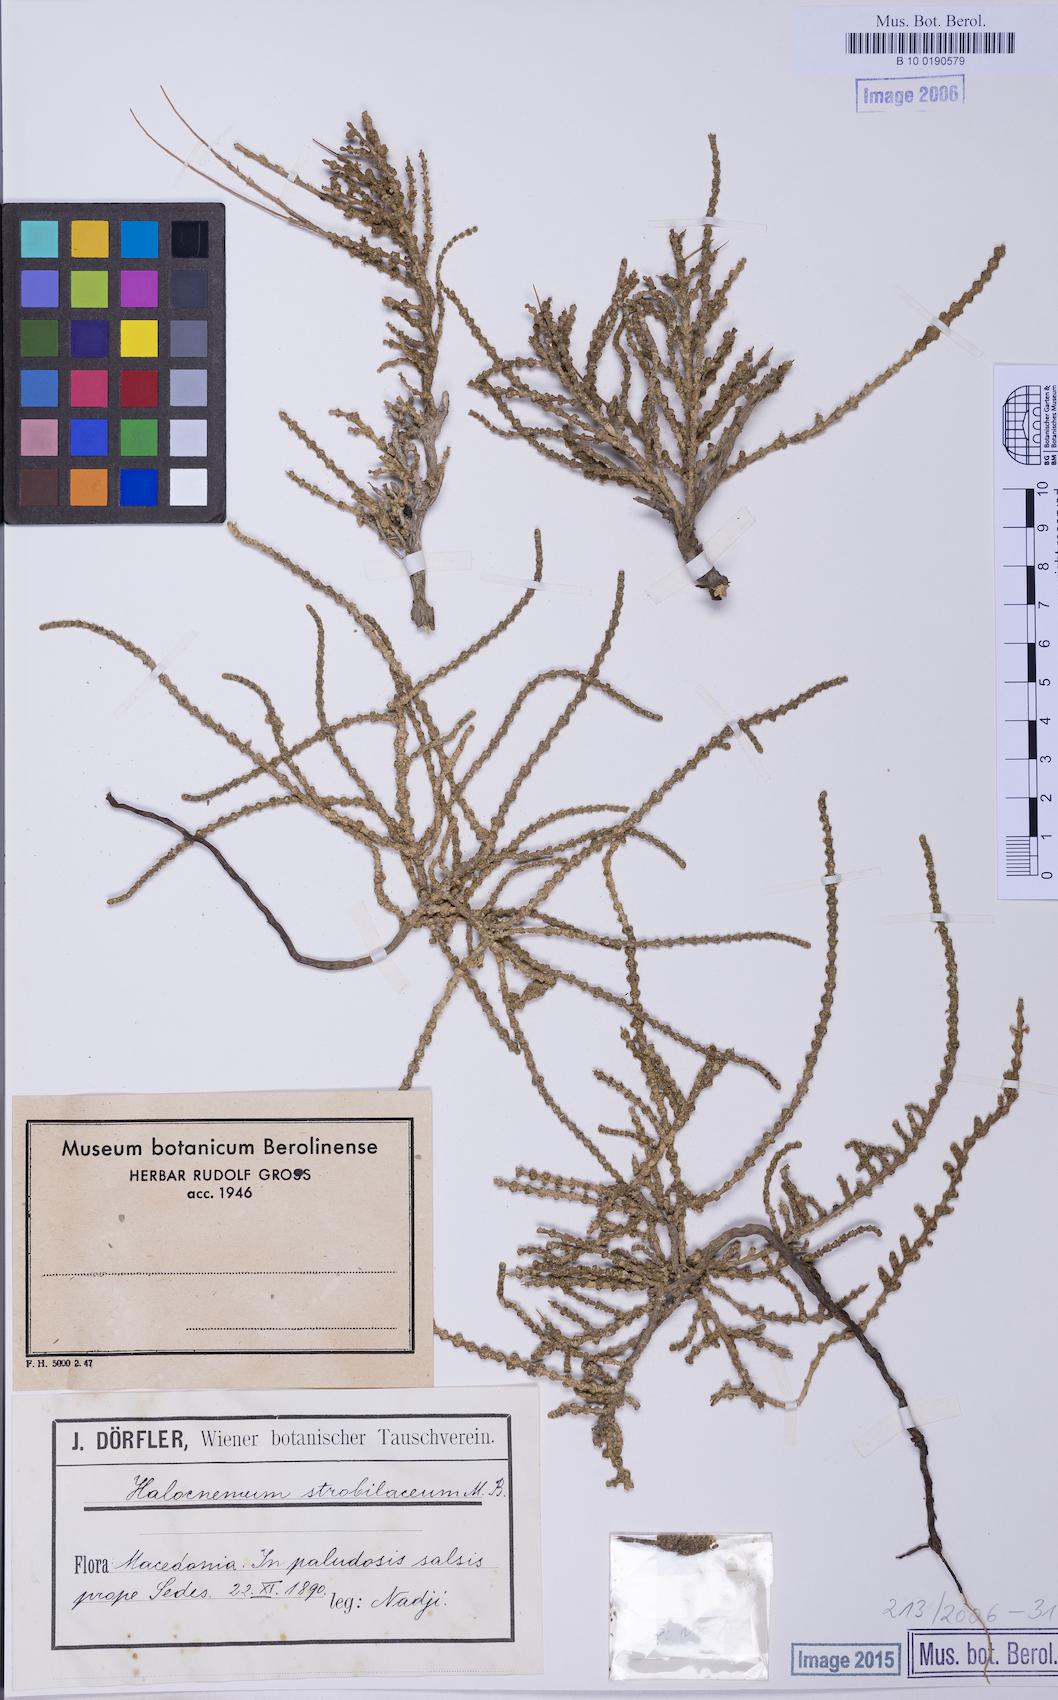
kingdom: Plantae
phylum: Tracheophyta
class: Magnoliopsida
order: Caryophyllales
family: Amaranthaceae
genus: Halocnemum
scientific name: Halocnemum strobilaceum
